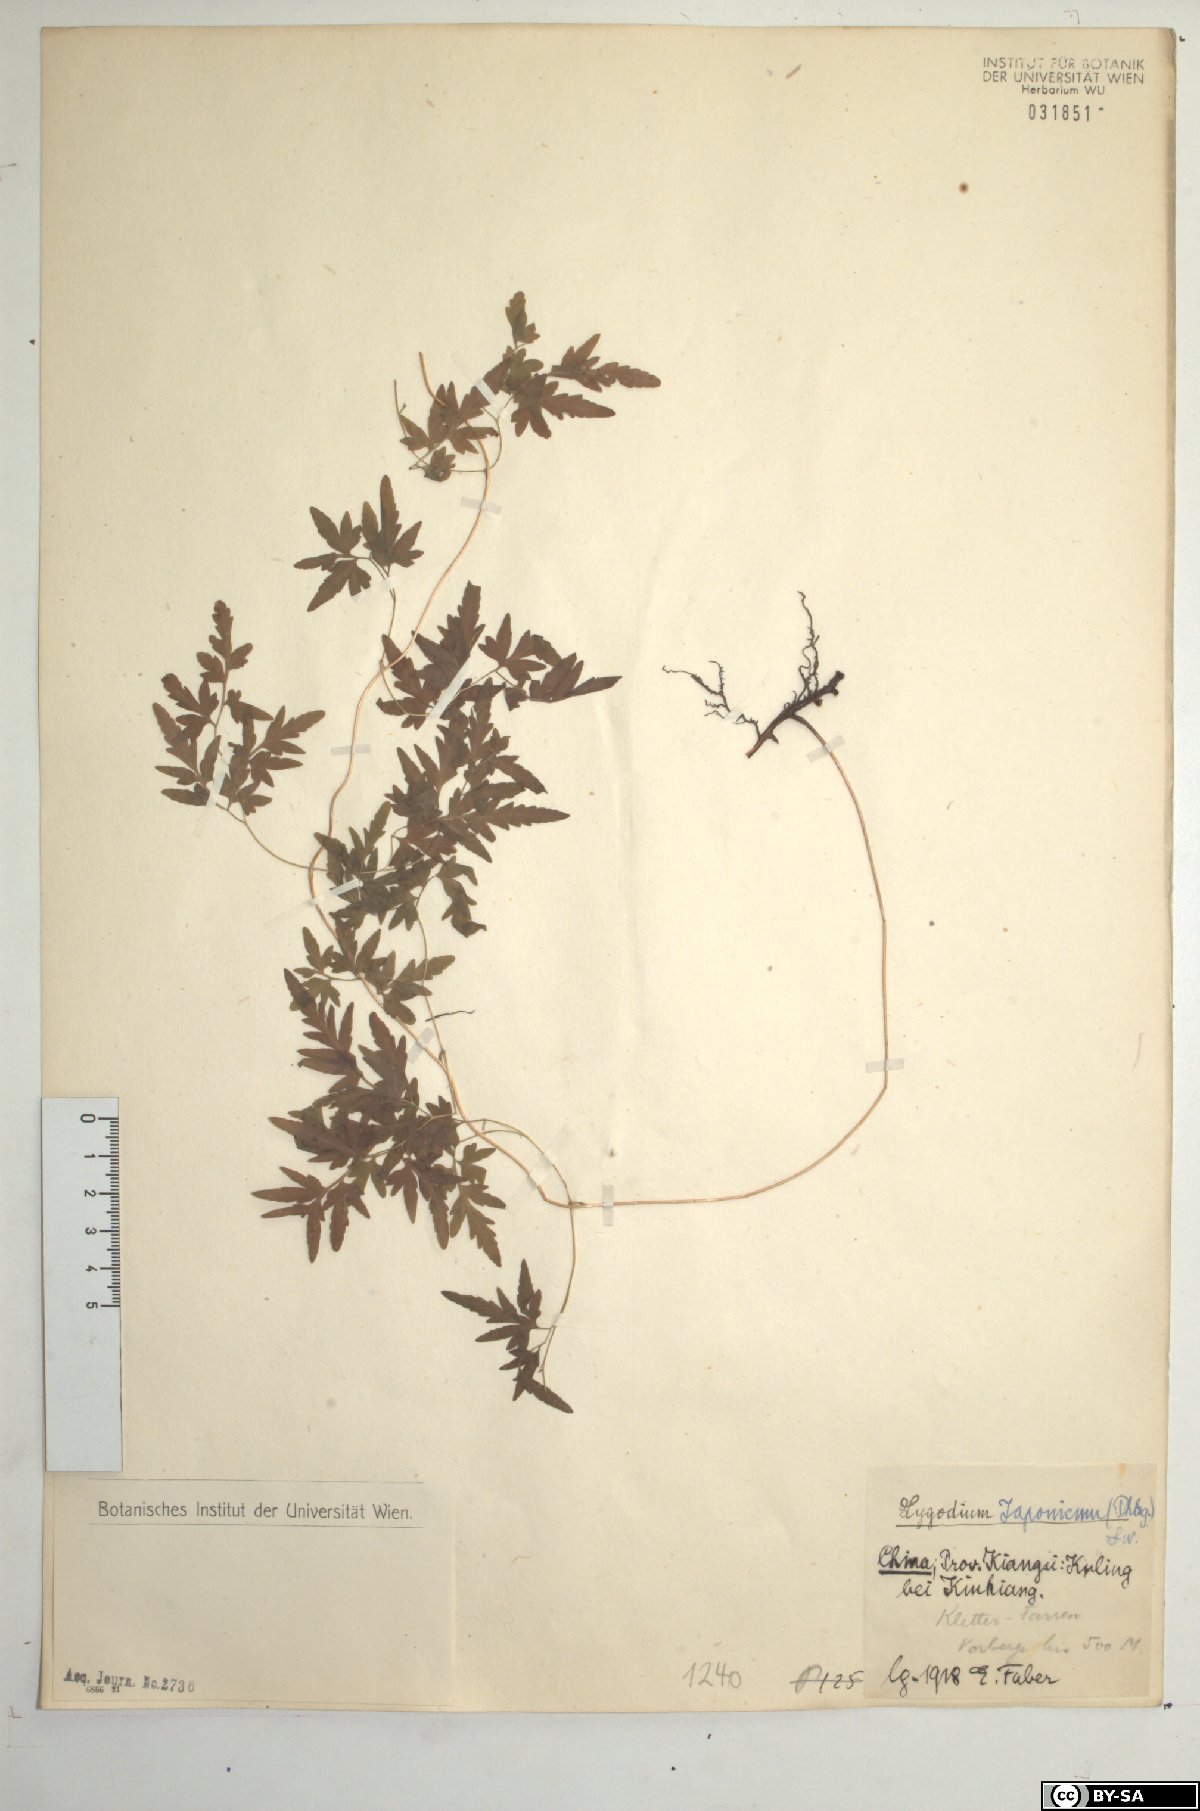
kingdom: Plantae
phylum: Tracheophyta
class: Polypodiopsida
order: Schizaeales
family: Lygodiaceae
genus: Lygodium
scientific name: Lygodium japonicum
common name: Japanese climbing fern
